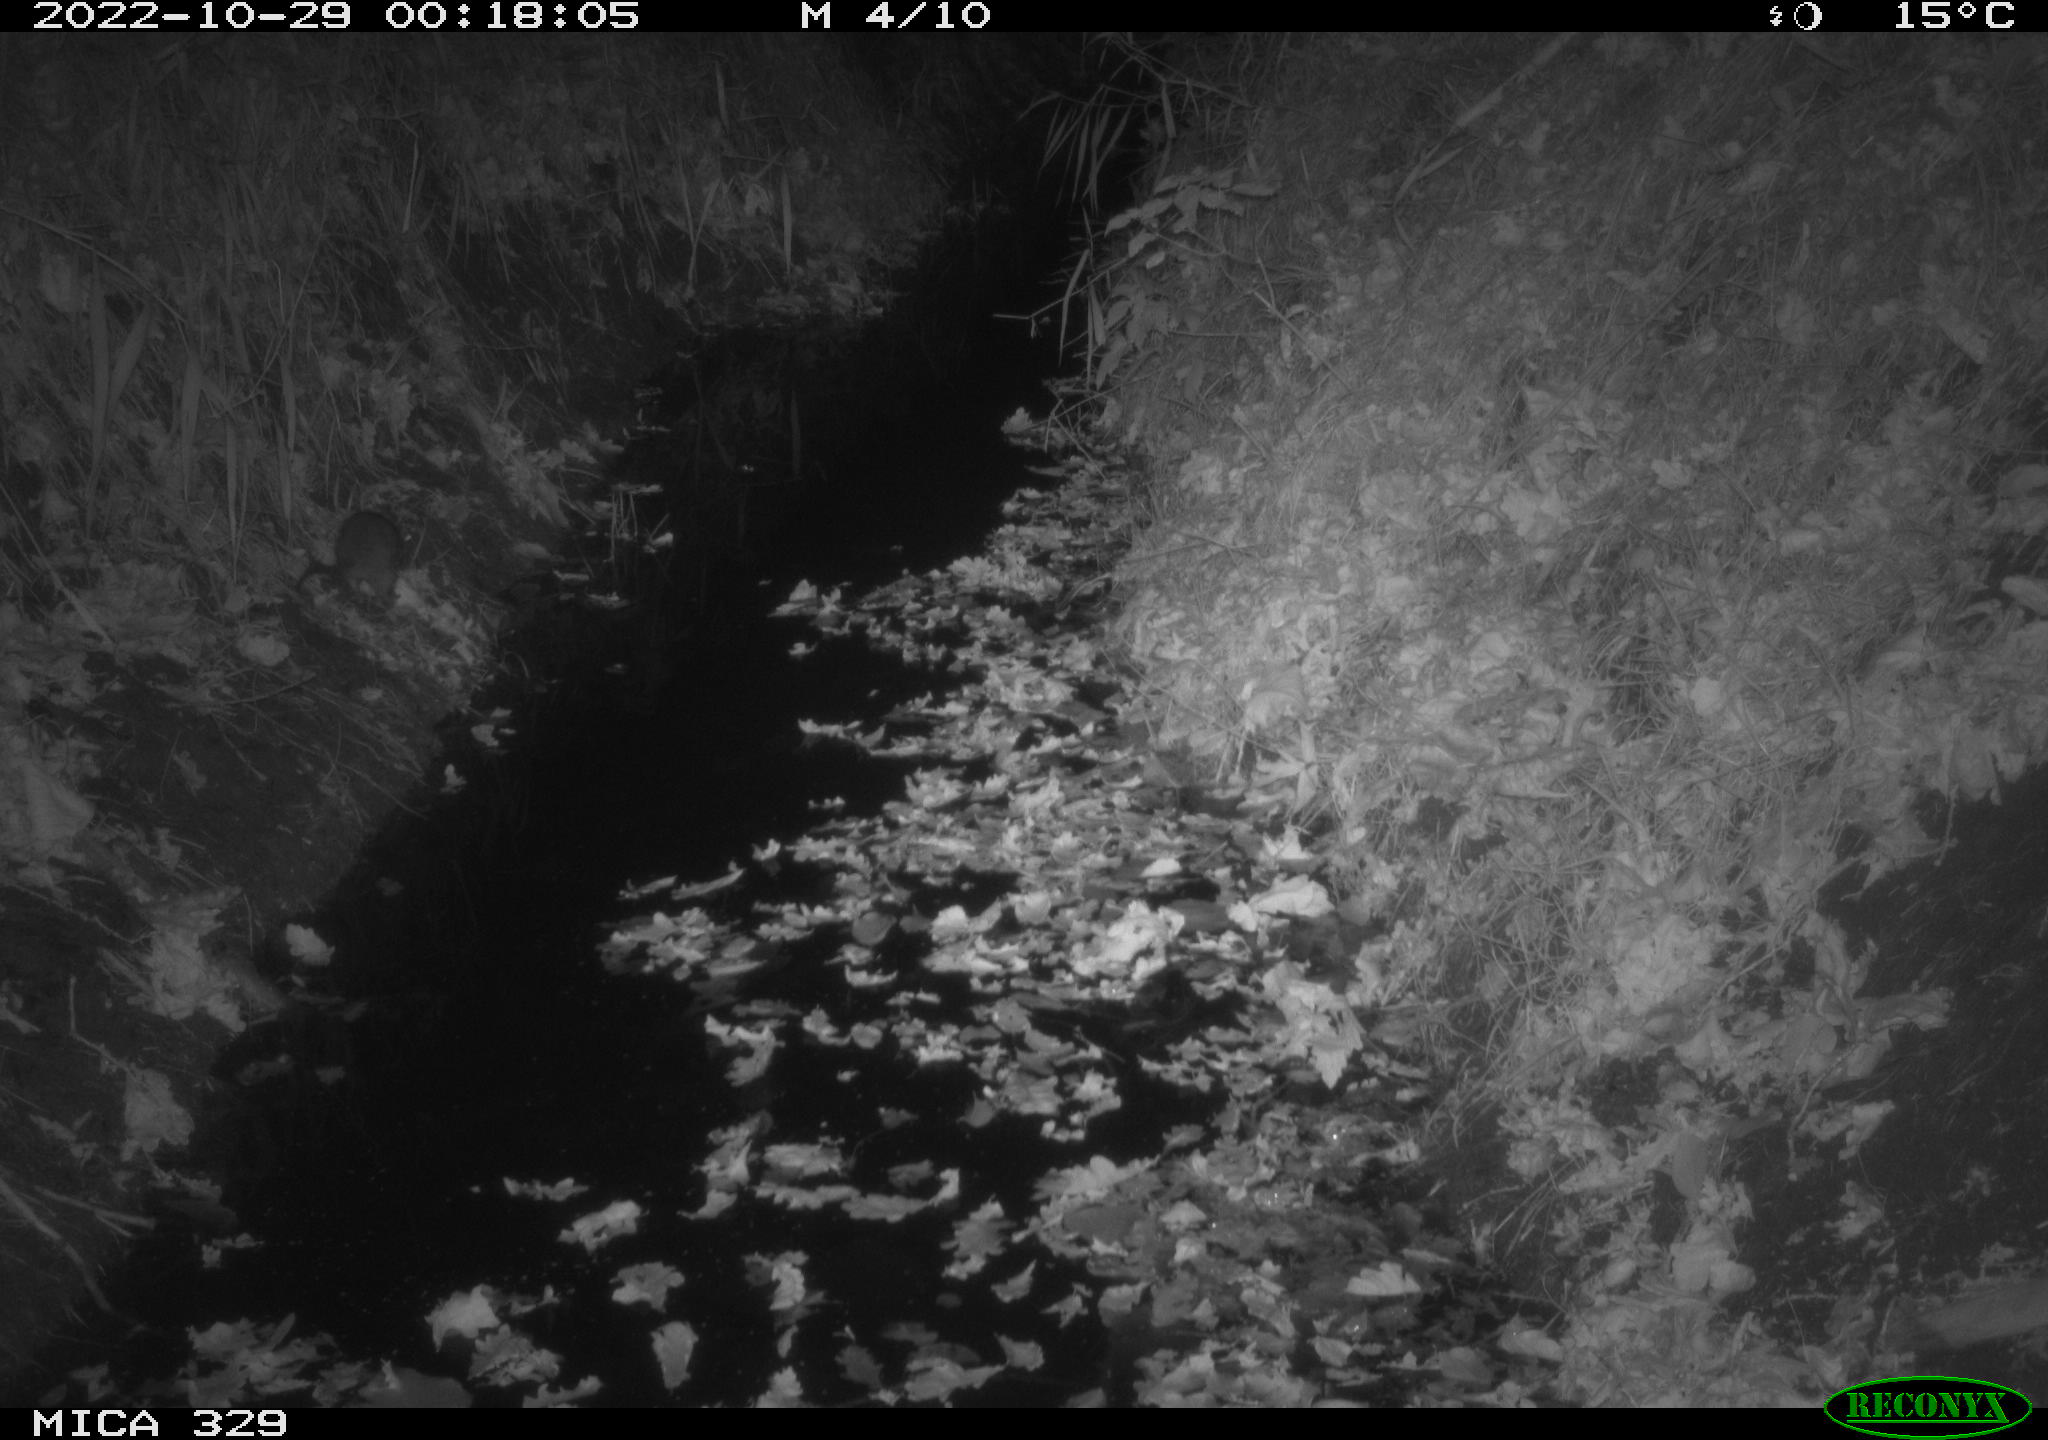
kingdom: Animalia
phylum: Chordata
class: Mammalia
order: Rodentia
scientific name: Rodentia
